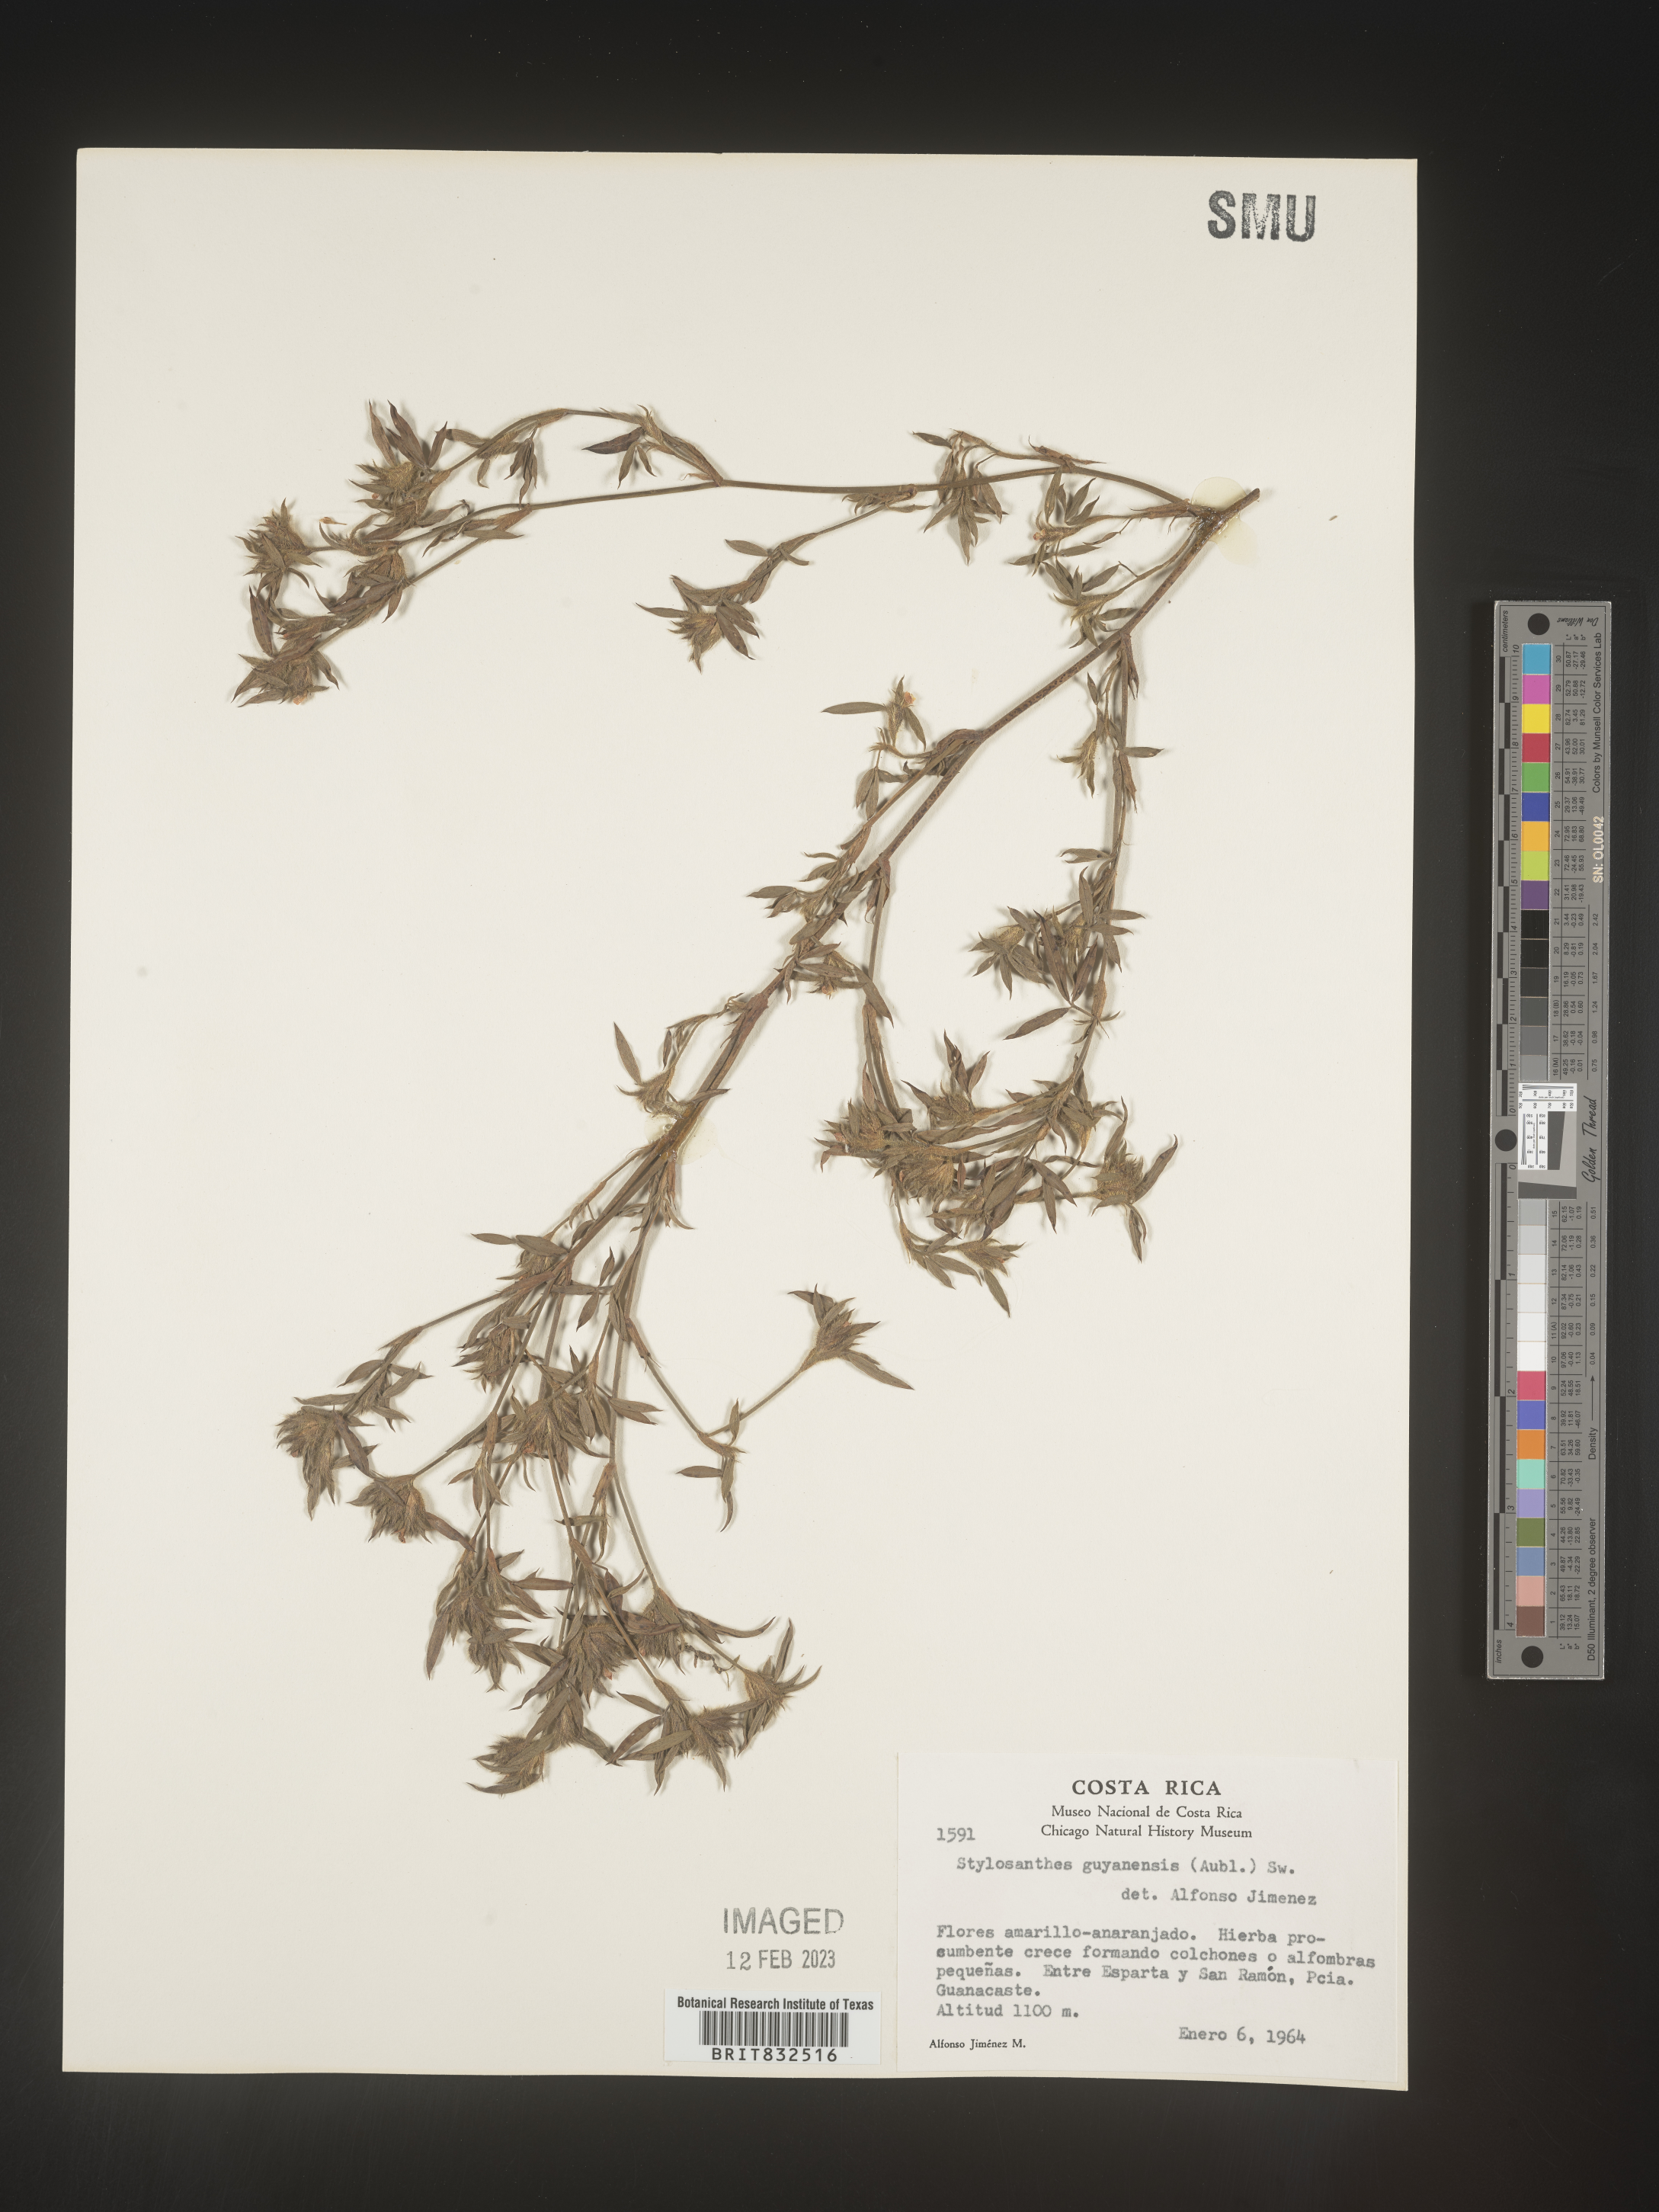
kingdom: Plantae
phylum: Tracheophyta
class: Magnoliopsida
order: Fabales
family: Fabaceae
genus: Stylosanthes
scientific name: Stylosanthes
